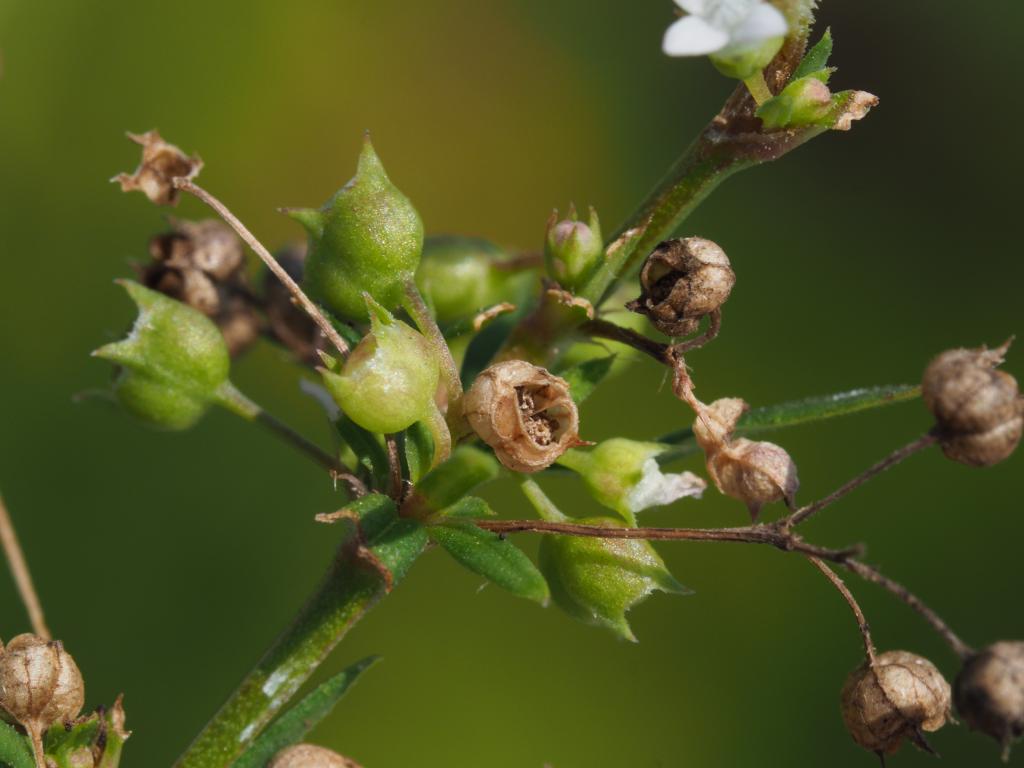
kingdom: Plantae
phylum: Tracheophyta
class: Magnoliopsida
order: Gentianales
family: Rubiaceae
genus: Oldenlandia
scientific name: Oldenlandia corymbosa
